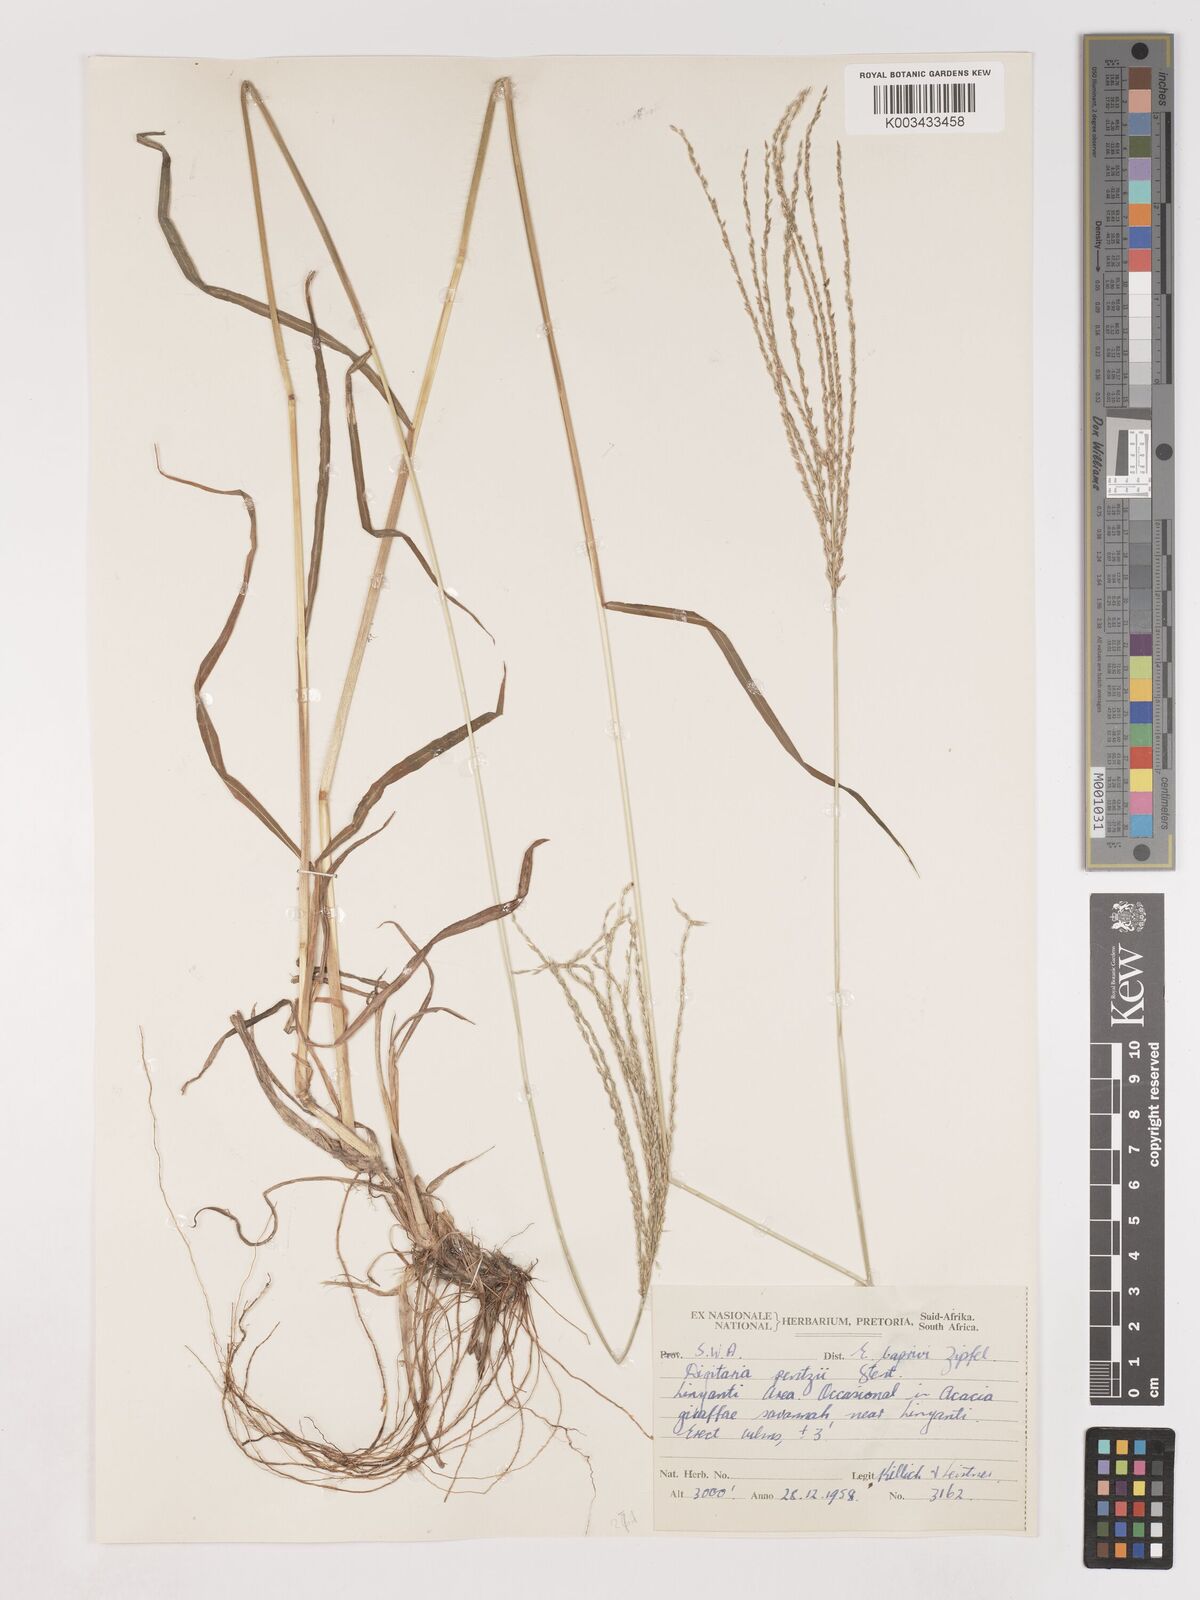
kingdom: Plantae
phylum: Tracheophyta
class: Liliopsida
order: Poales
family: Poaceae
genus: Digitaria
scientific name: Digitaria eriantha
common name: Digitgrass
